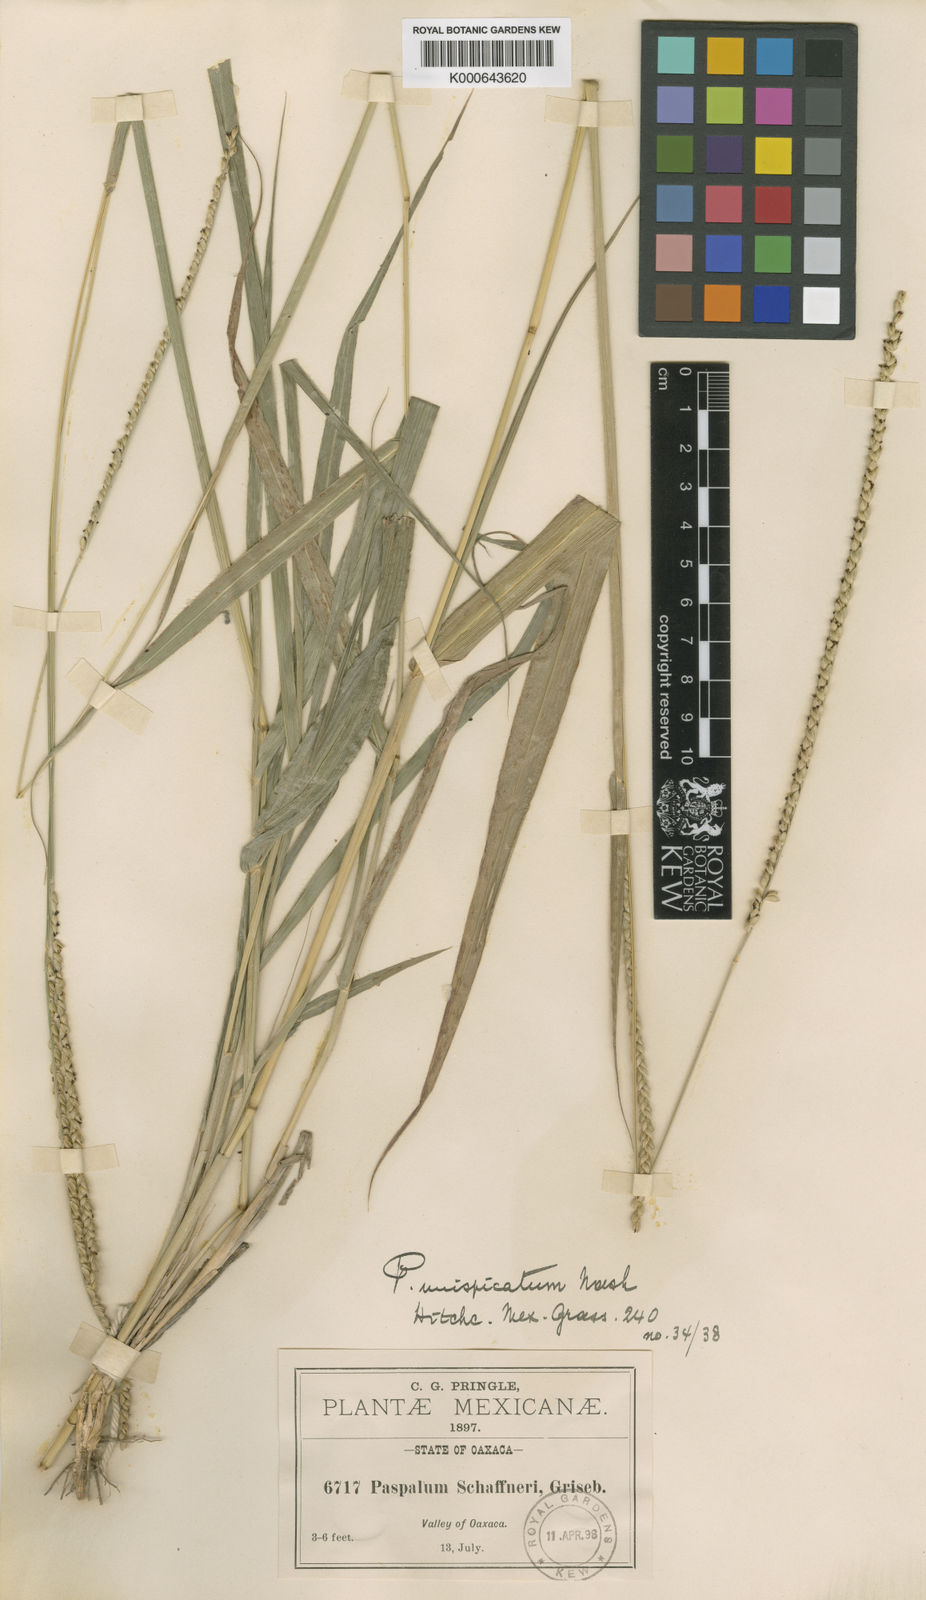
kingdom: Plantae
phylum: Tracheophyta
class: Liliopsida
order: Poales
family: Poaceae
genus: Paspalum
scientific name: Paspalum unispicatum
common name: Onespike paspalum
